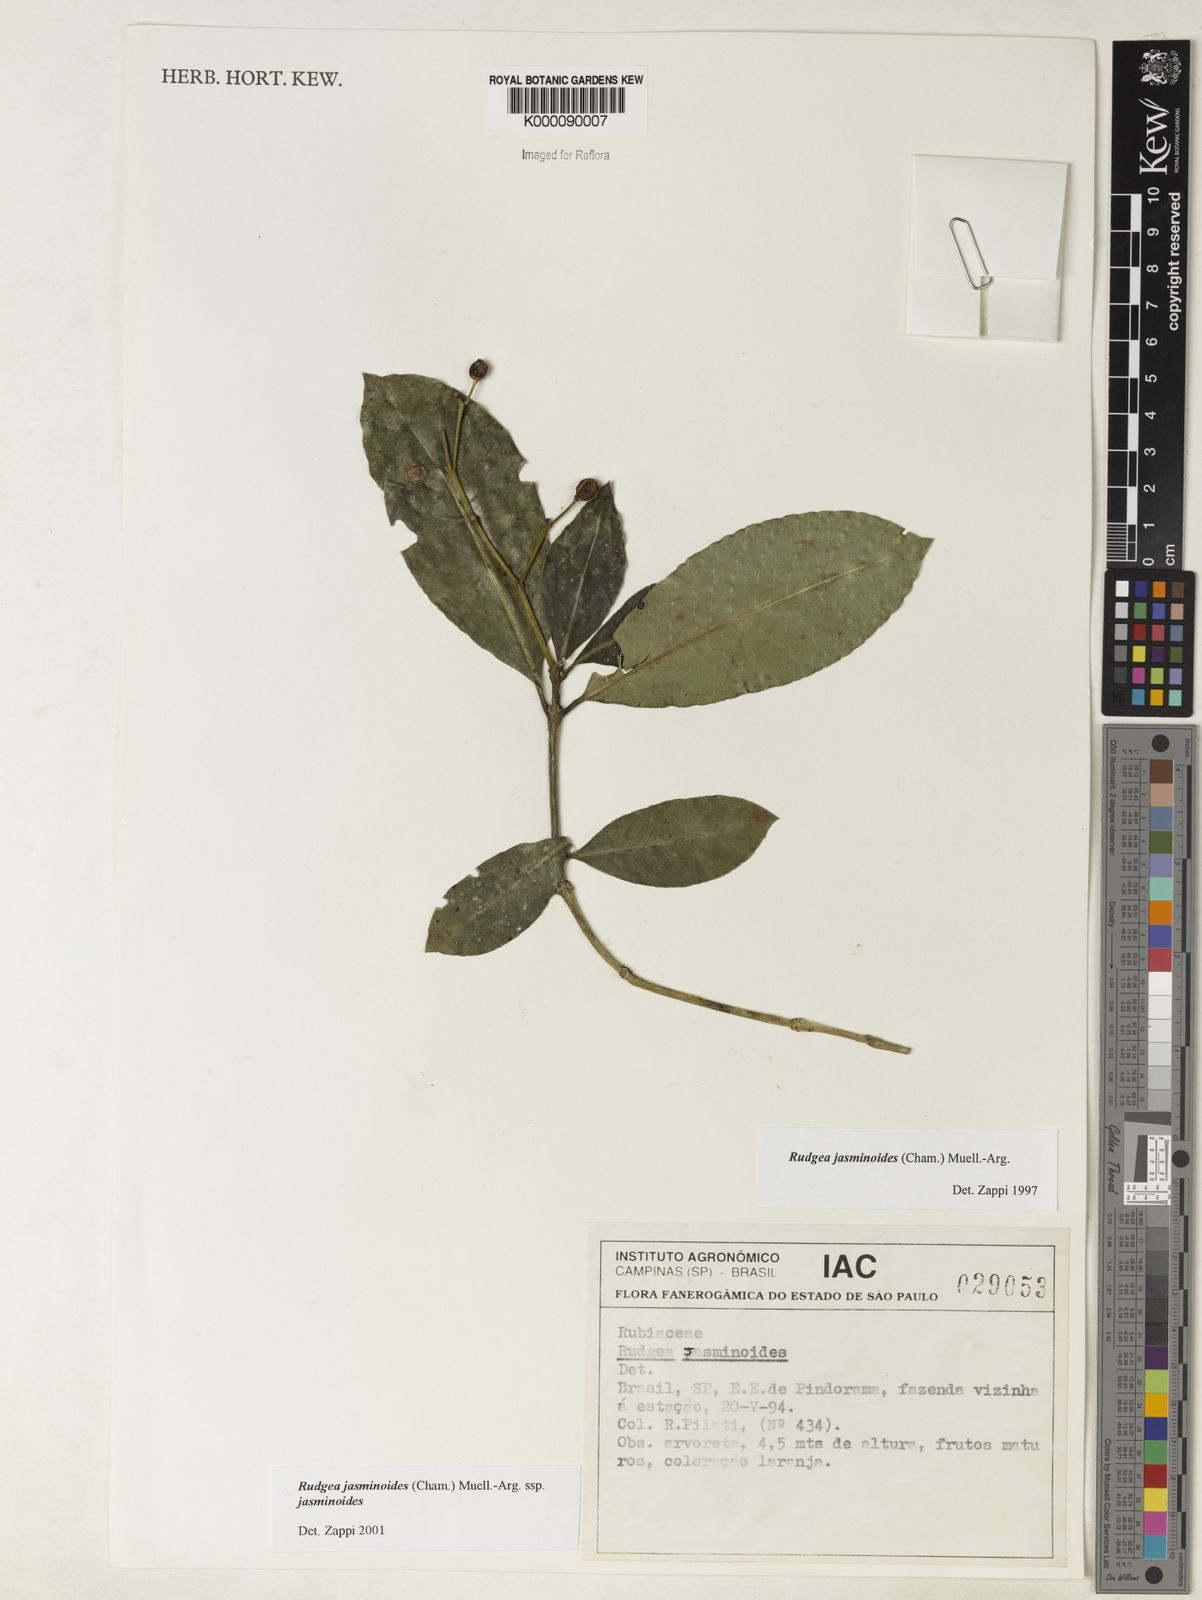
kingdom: Plantae
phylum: Tracheophyta
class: Magnoliopsida
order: Gentianales
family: Rubiaceae
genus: Rudgea
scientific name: Rudgea jasminoides
